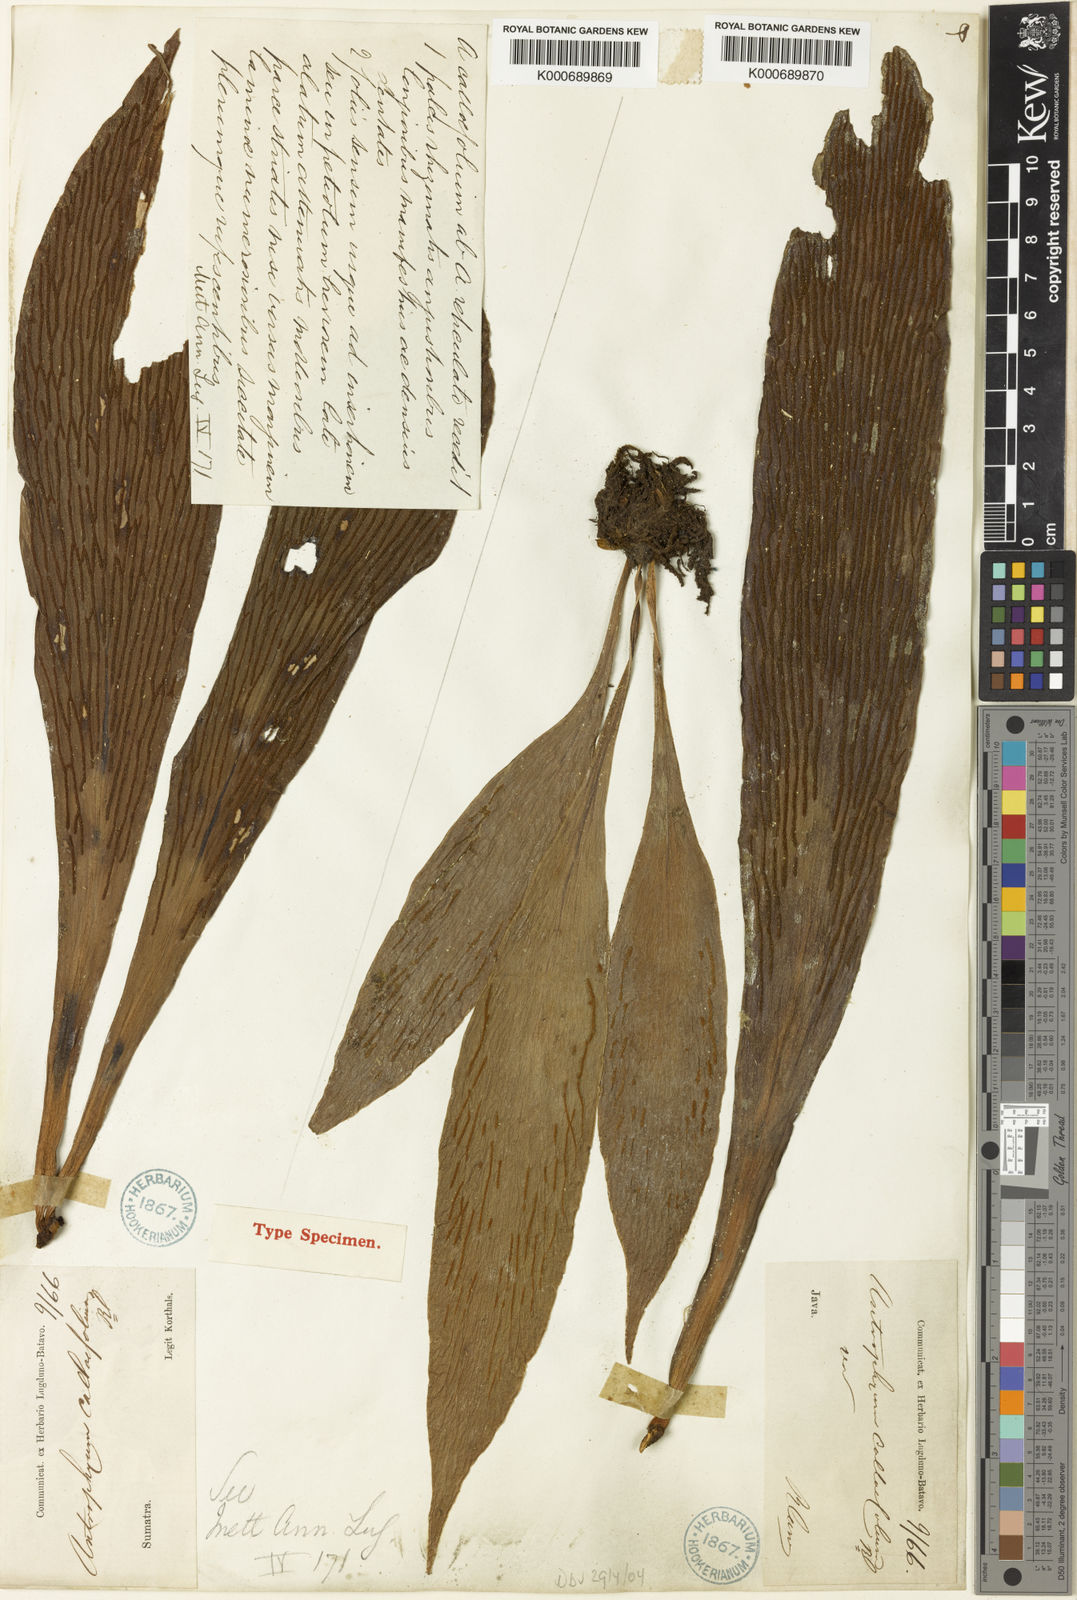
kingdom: Plantae
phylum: Tracheophyta
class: Polypodiopsida
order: Polypodiales
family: Pteridaceae
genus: Antrophyum
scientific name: Antrophyum callifolium
